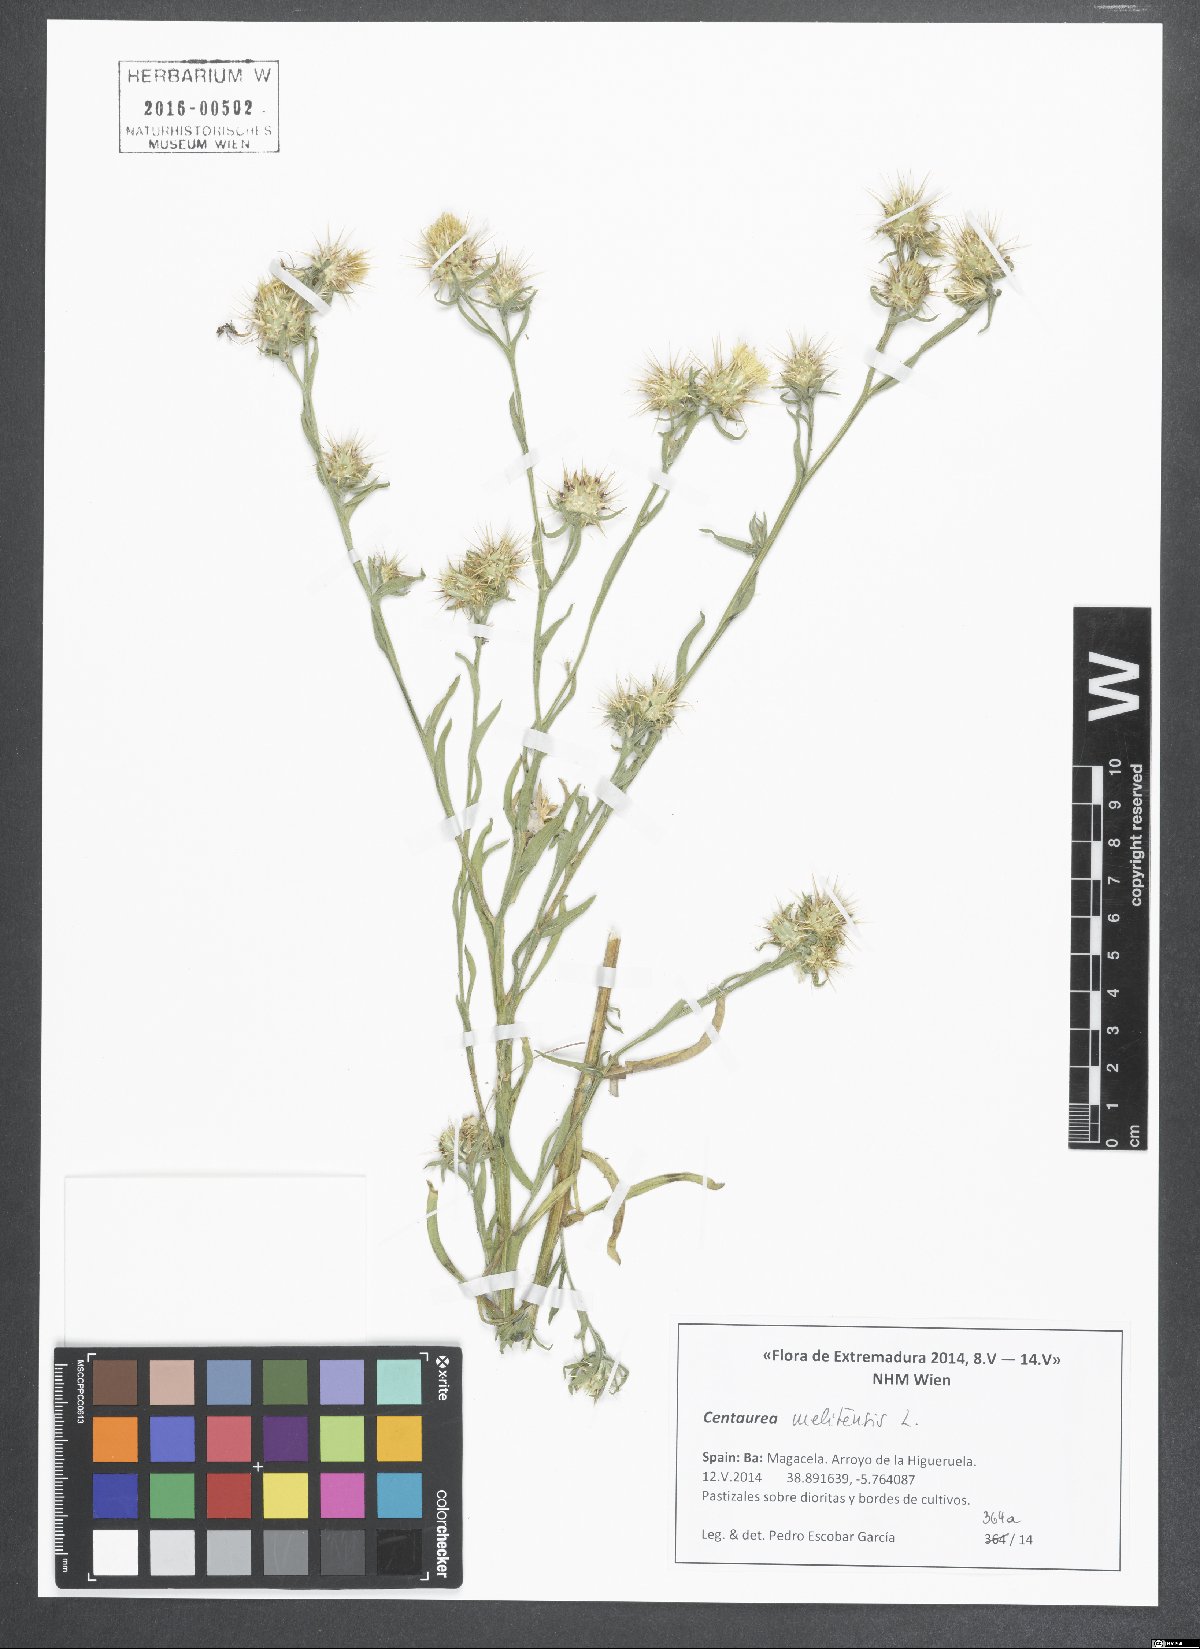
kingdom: Plantae
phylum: Tracheophyta
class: Magnoliopsida
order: Asterales
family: Asteraceae
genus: Centaurea
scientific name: Centaurea melitensis
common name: Maltese star-thistle
